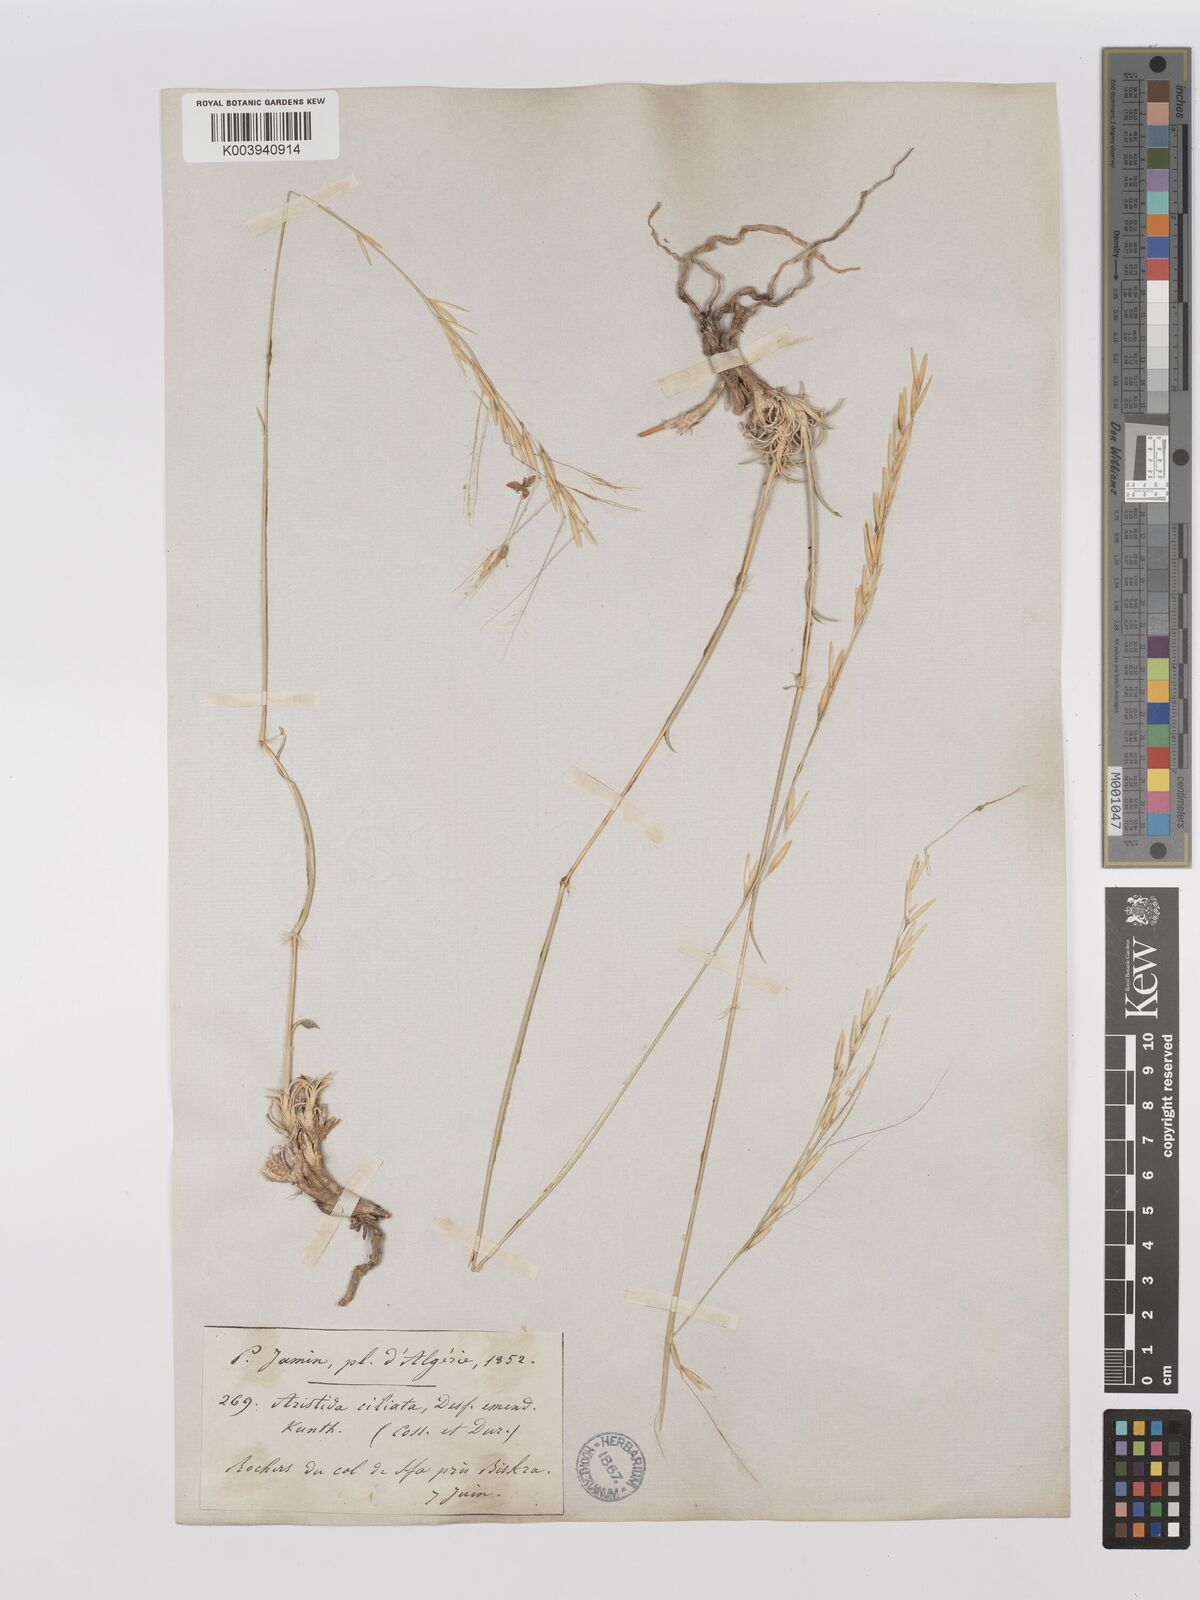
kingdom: Plantae
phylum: Tracheophyta
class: Liliopsida
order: Poales
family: Poaceae
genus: Stipagrostis
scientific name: Stipagrostis ciliata
